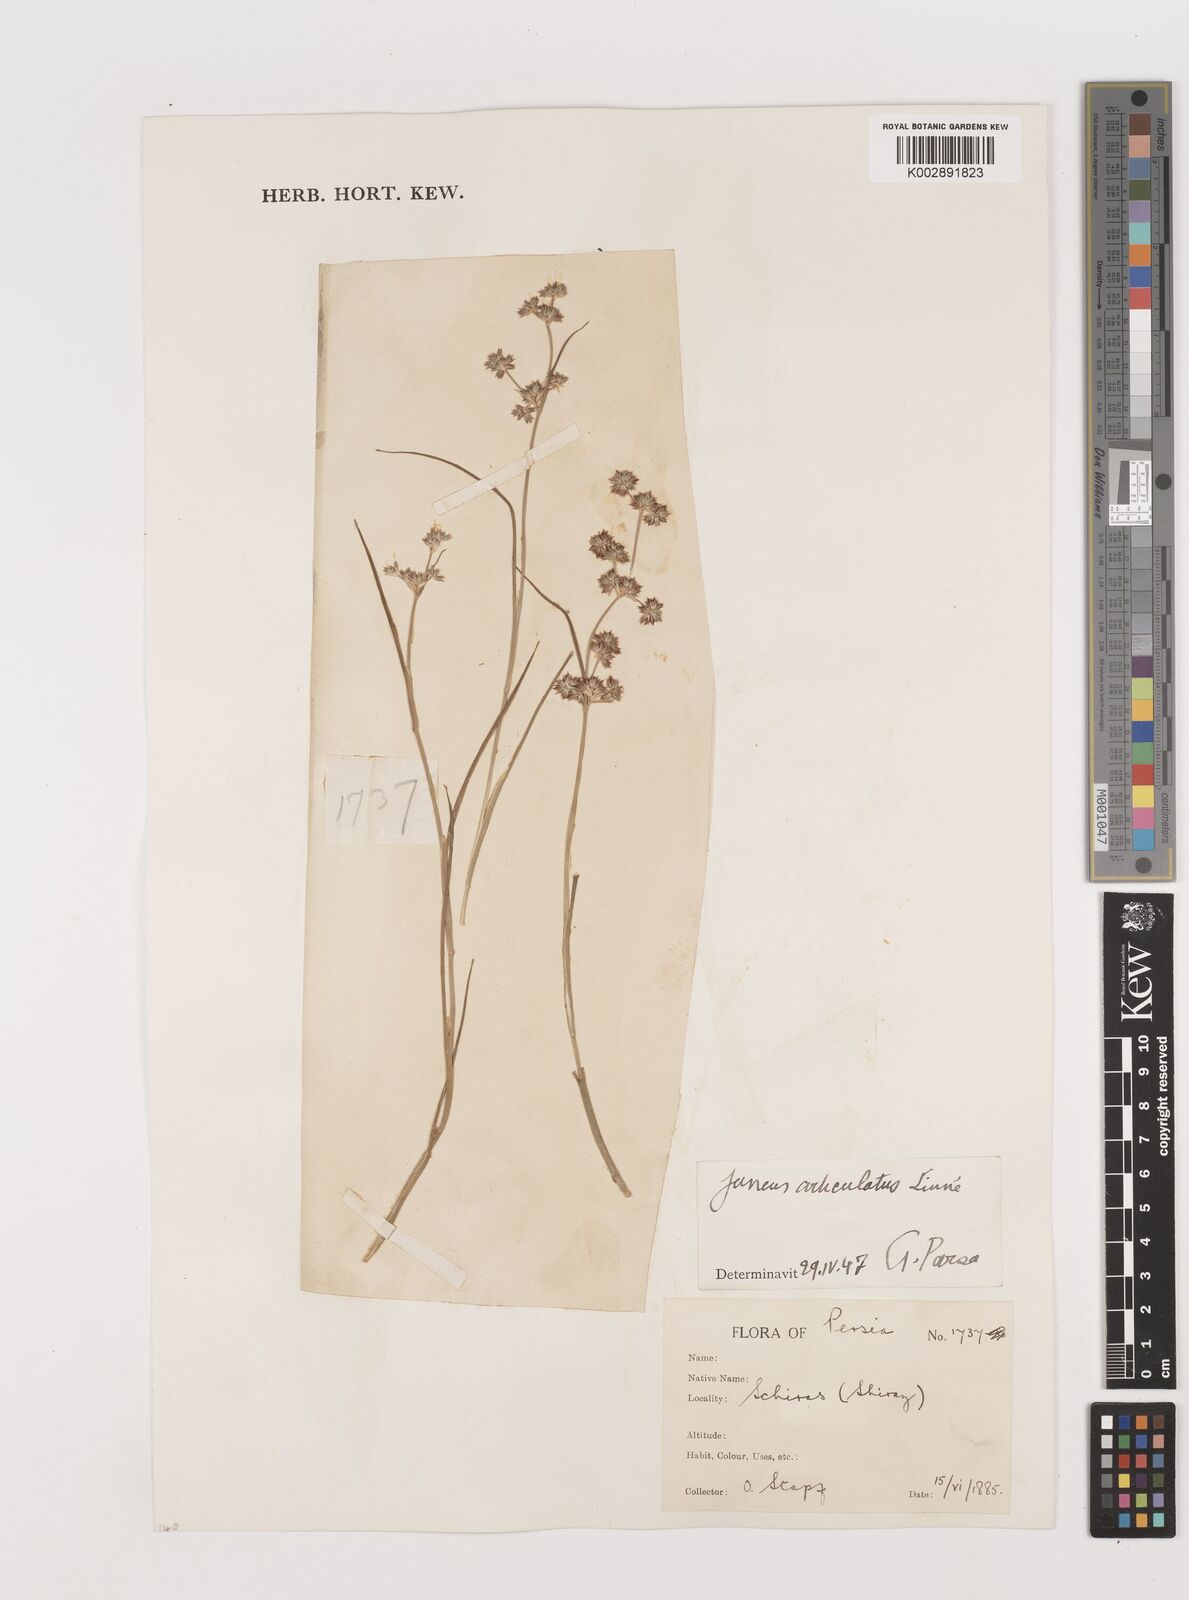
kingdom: Plantae
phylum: Tracheophyta
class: Liliopsida
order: Poales
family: Juncaceae
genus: Juncus
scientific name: Juncus articulatus
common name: Jointed rush
